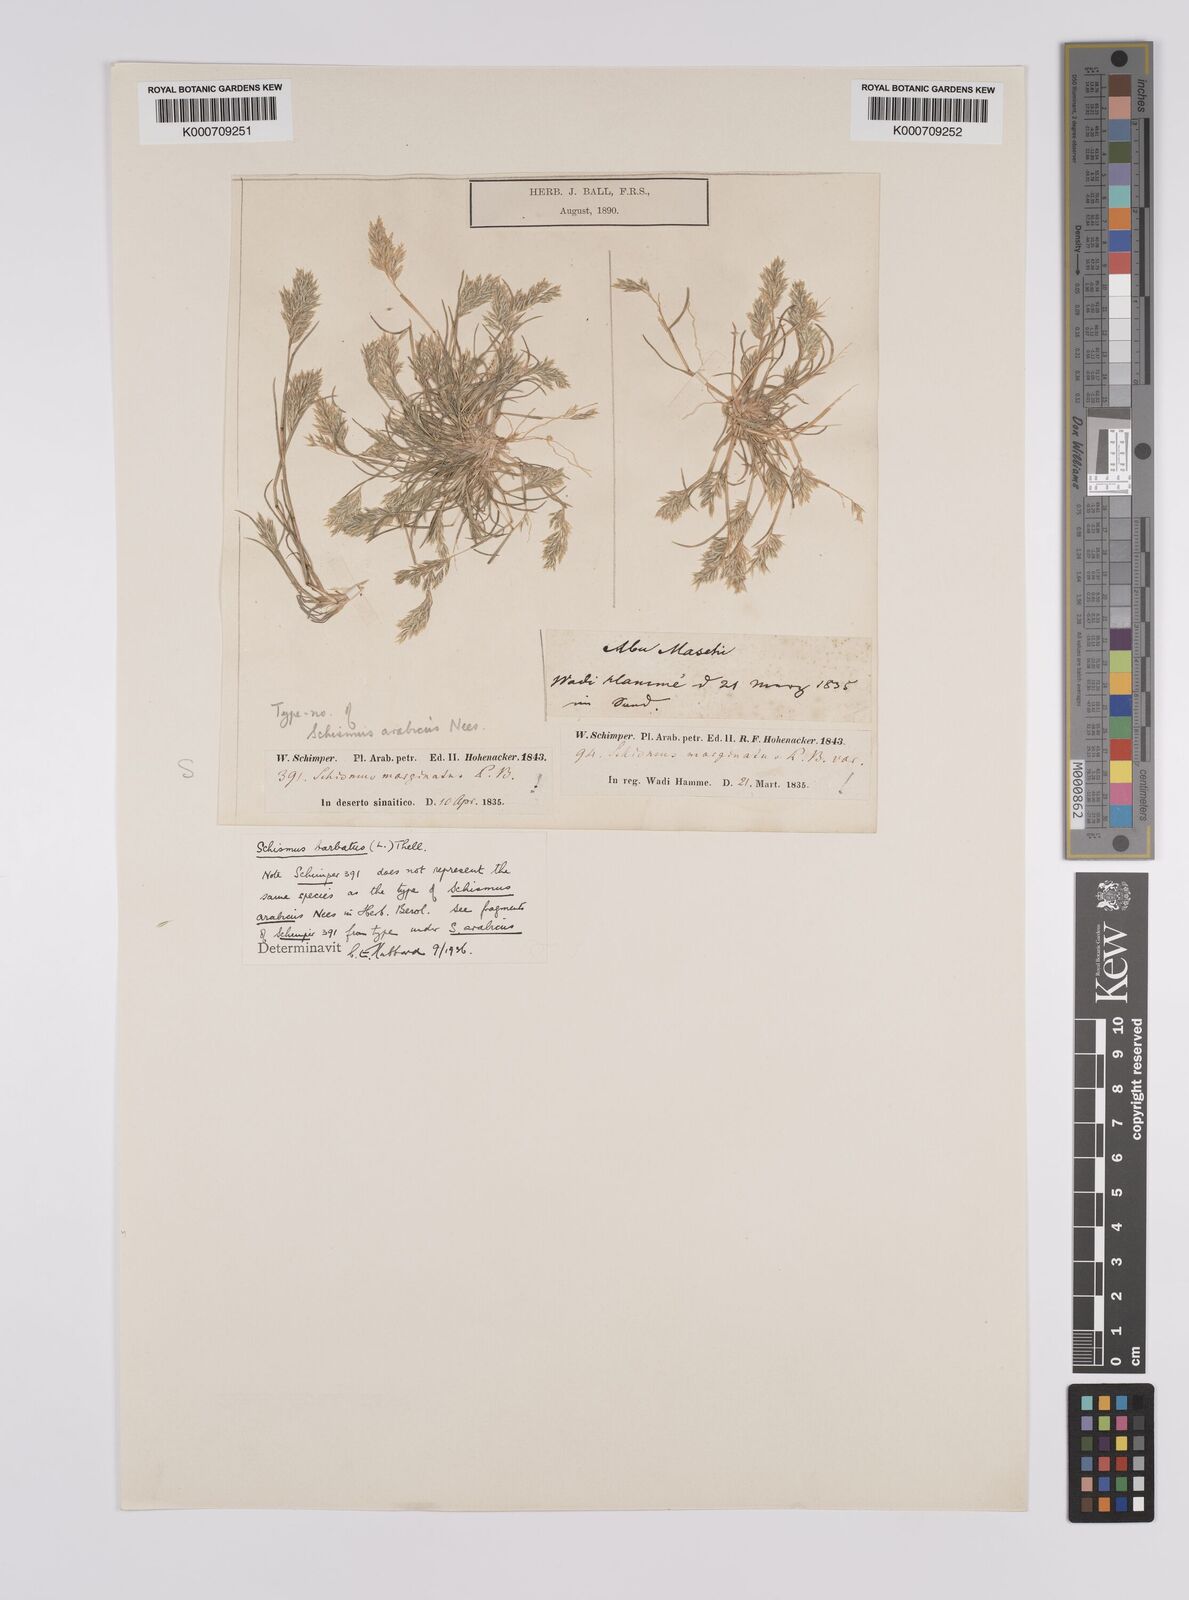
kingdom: Plantae
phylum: Tracheophyta
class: Liliopsida
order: Poales
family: Poaceae
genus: Schismus
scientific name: Schismus barbatus
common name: Kelch-grass
